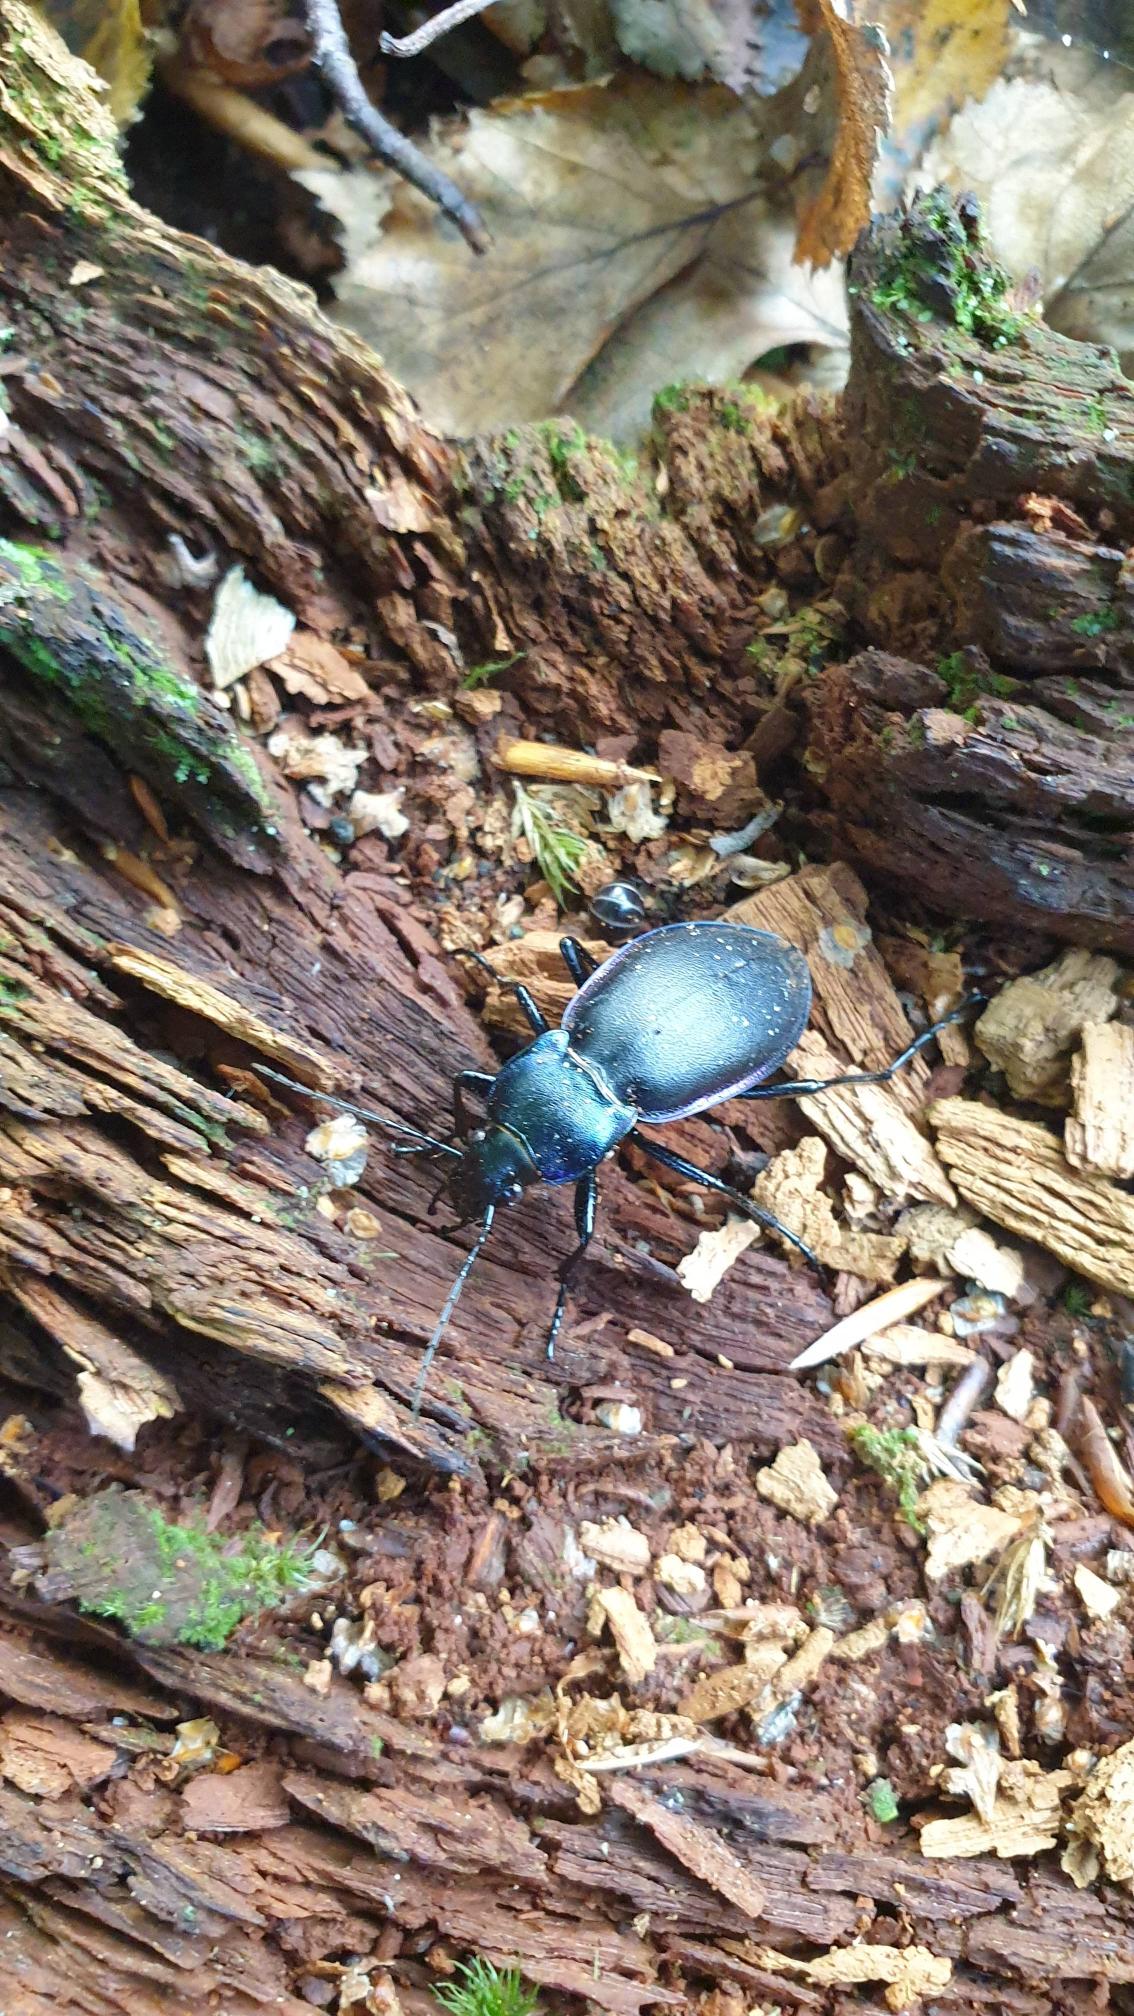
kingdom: Animalia
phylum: Arthropoda
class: Insecta
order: Coleoptera
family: Carabidae
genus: Carabus
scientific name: Carabus violaceus
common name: Violetrandet løber
